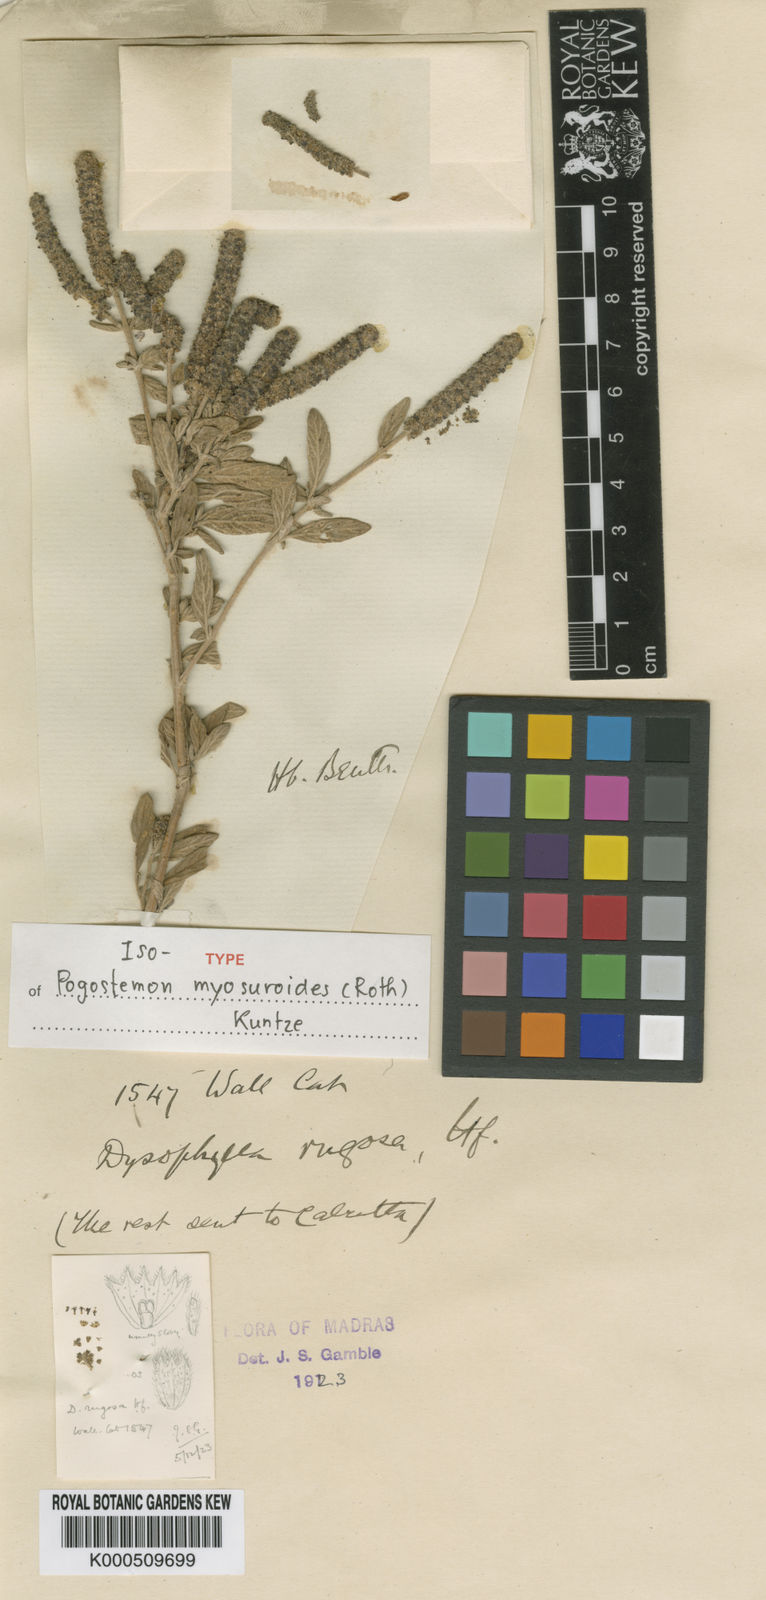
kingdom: Plantae
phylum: Tracheophyta
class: Magnoliopsida
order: Lamiales
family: Lamiaceae
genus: Pogostemon
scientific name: Pogostemon myosuroides
